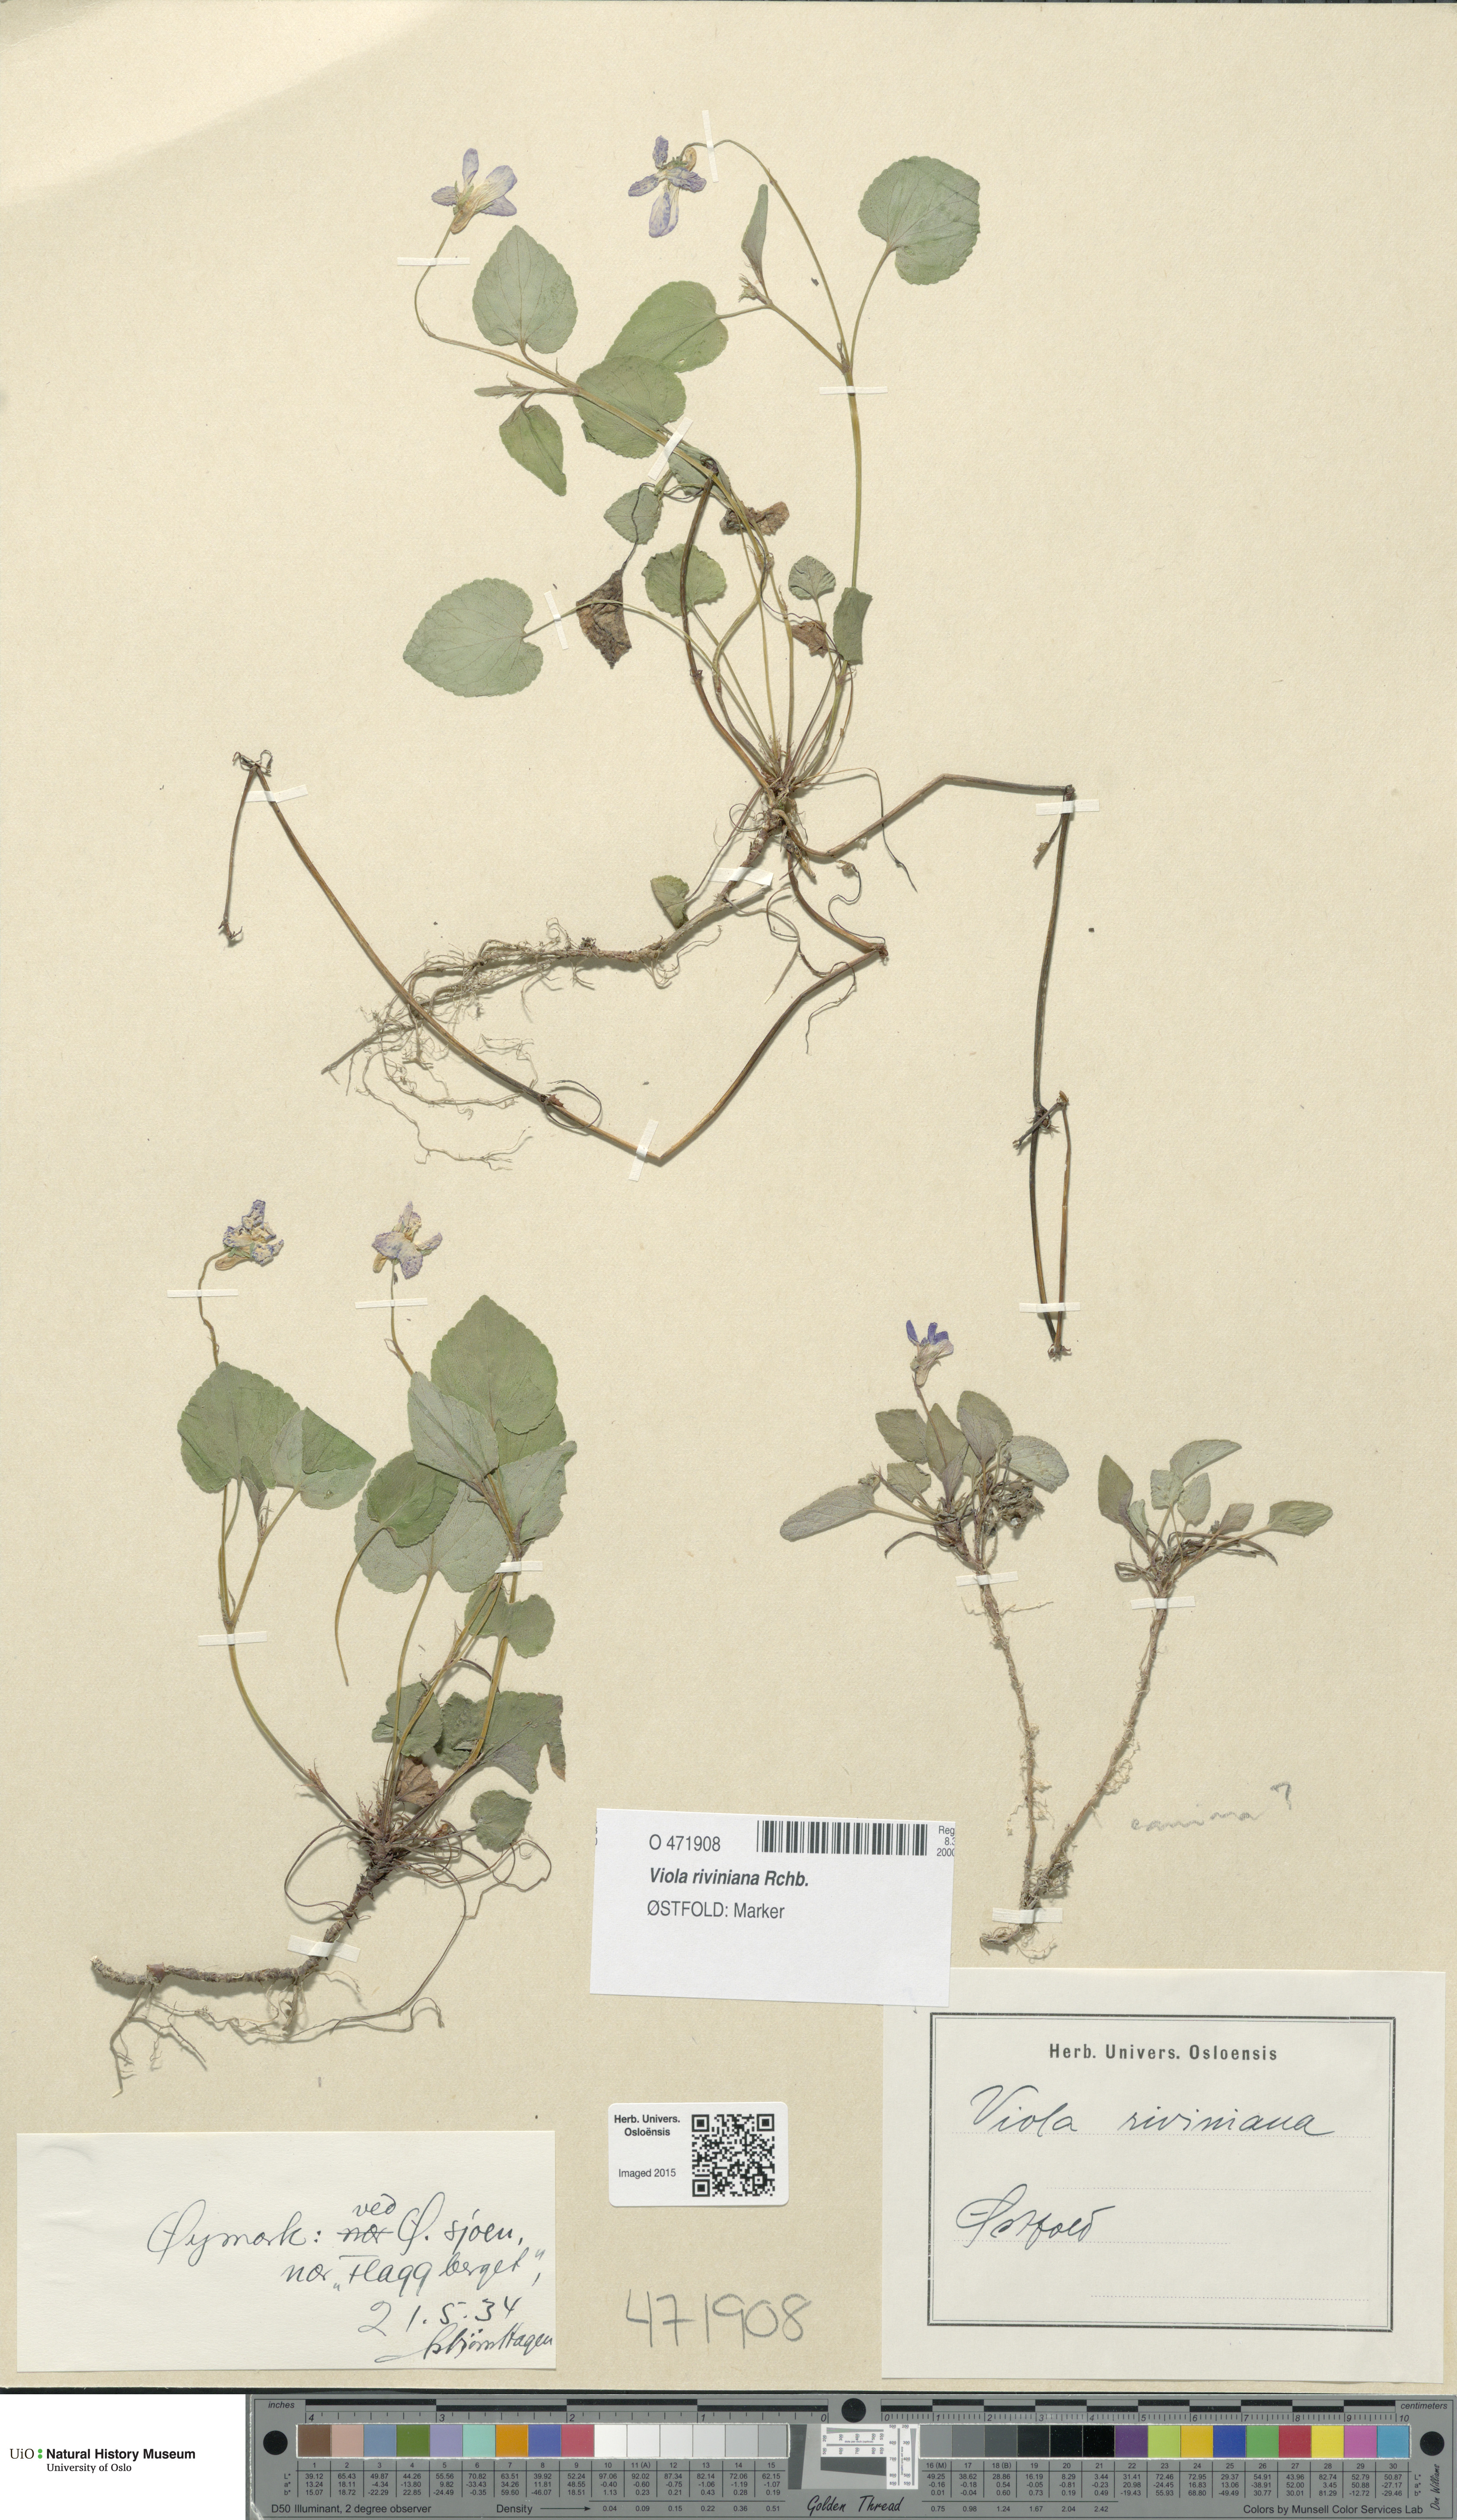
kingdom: Plantae
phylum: Tracheophyta
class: Magnoliopsida
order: Malpighiales
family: Violaceae
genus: Viola
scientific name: Viola riviniana
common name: Common dog-violet
